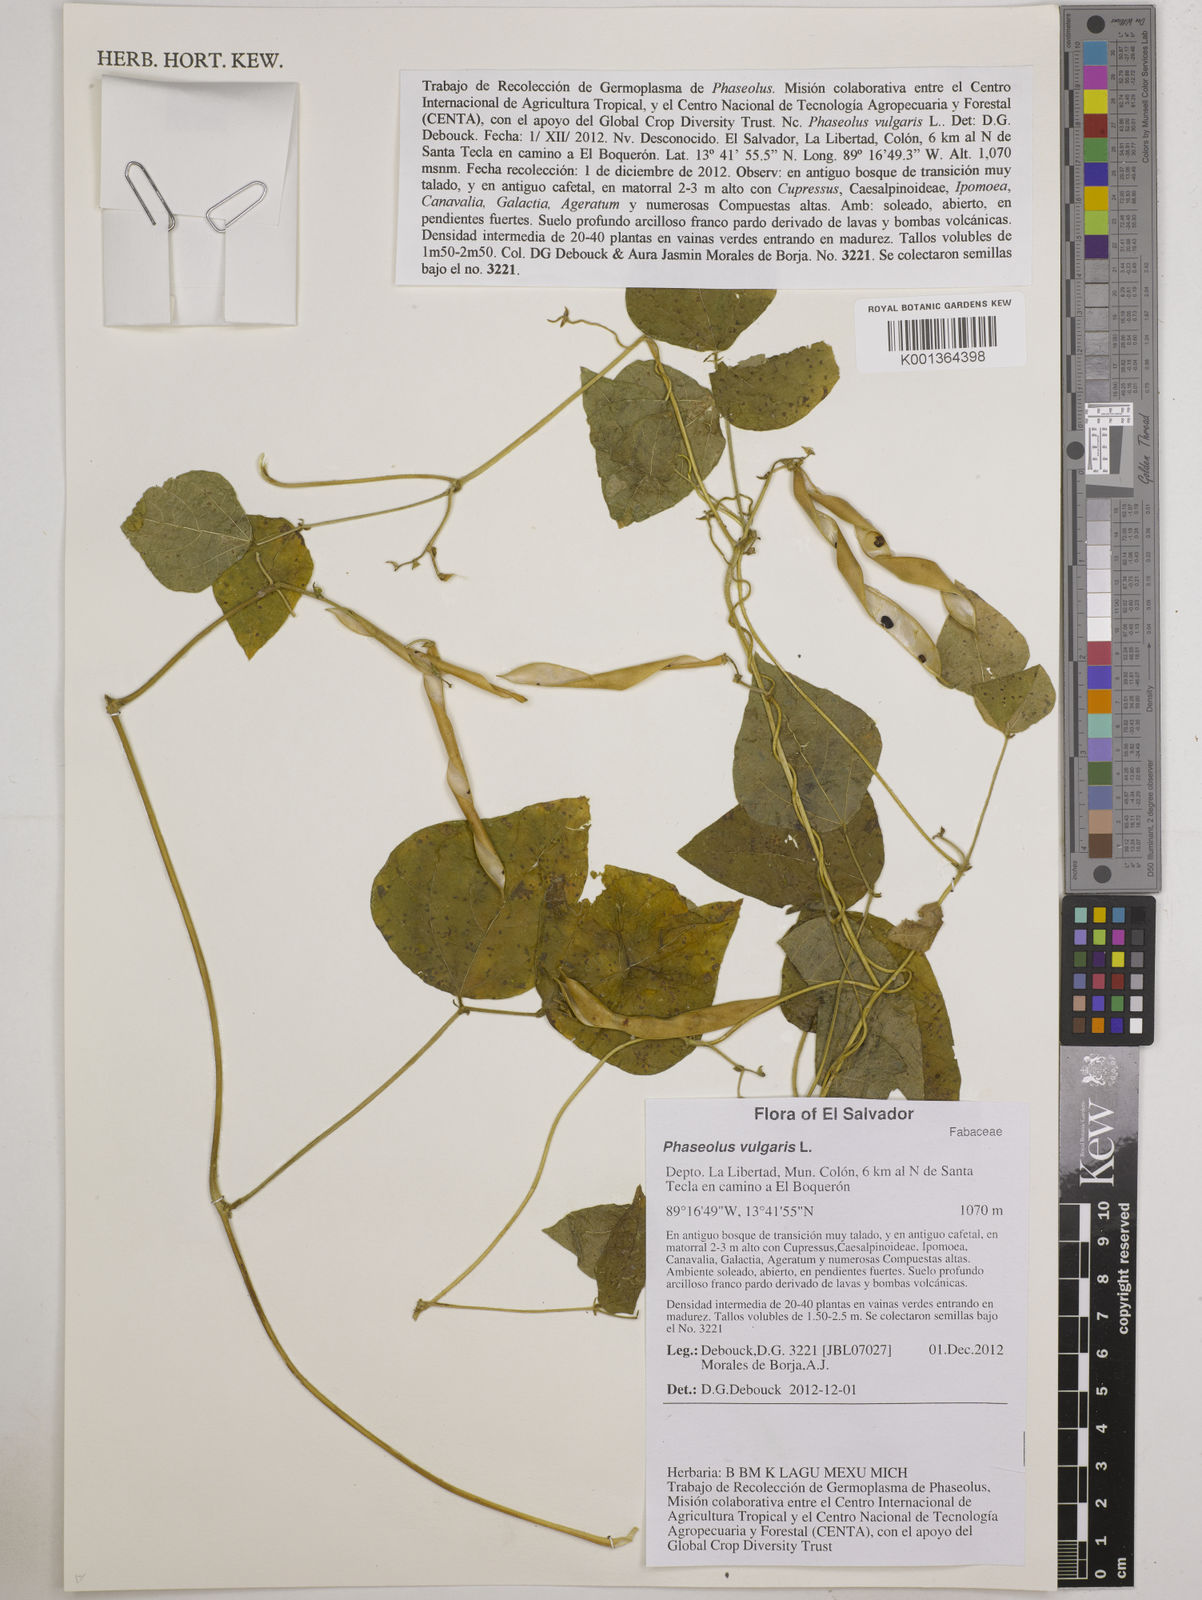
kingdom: Plantae
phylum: Tracheophyta
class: Magnoliopsida
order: Fabales
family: Fabaceae
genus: Phaseolus
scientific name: Phaseolus vulgaris
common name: Bean
